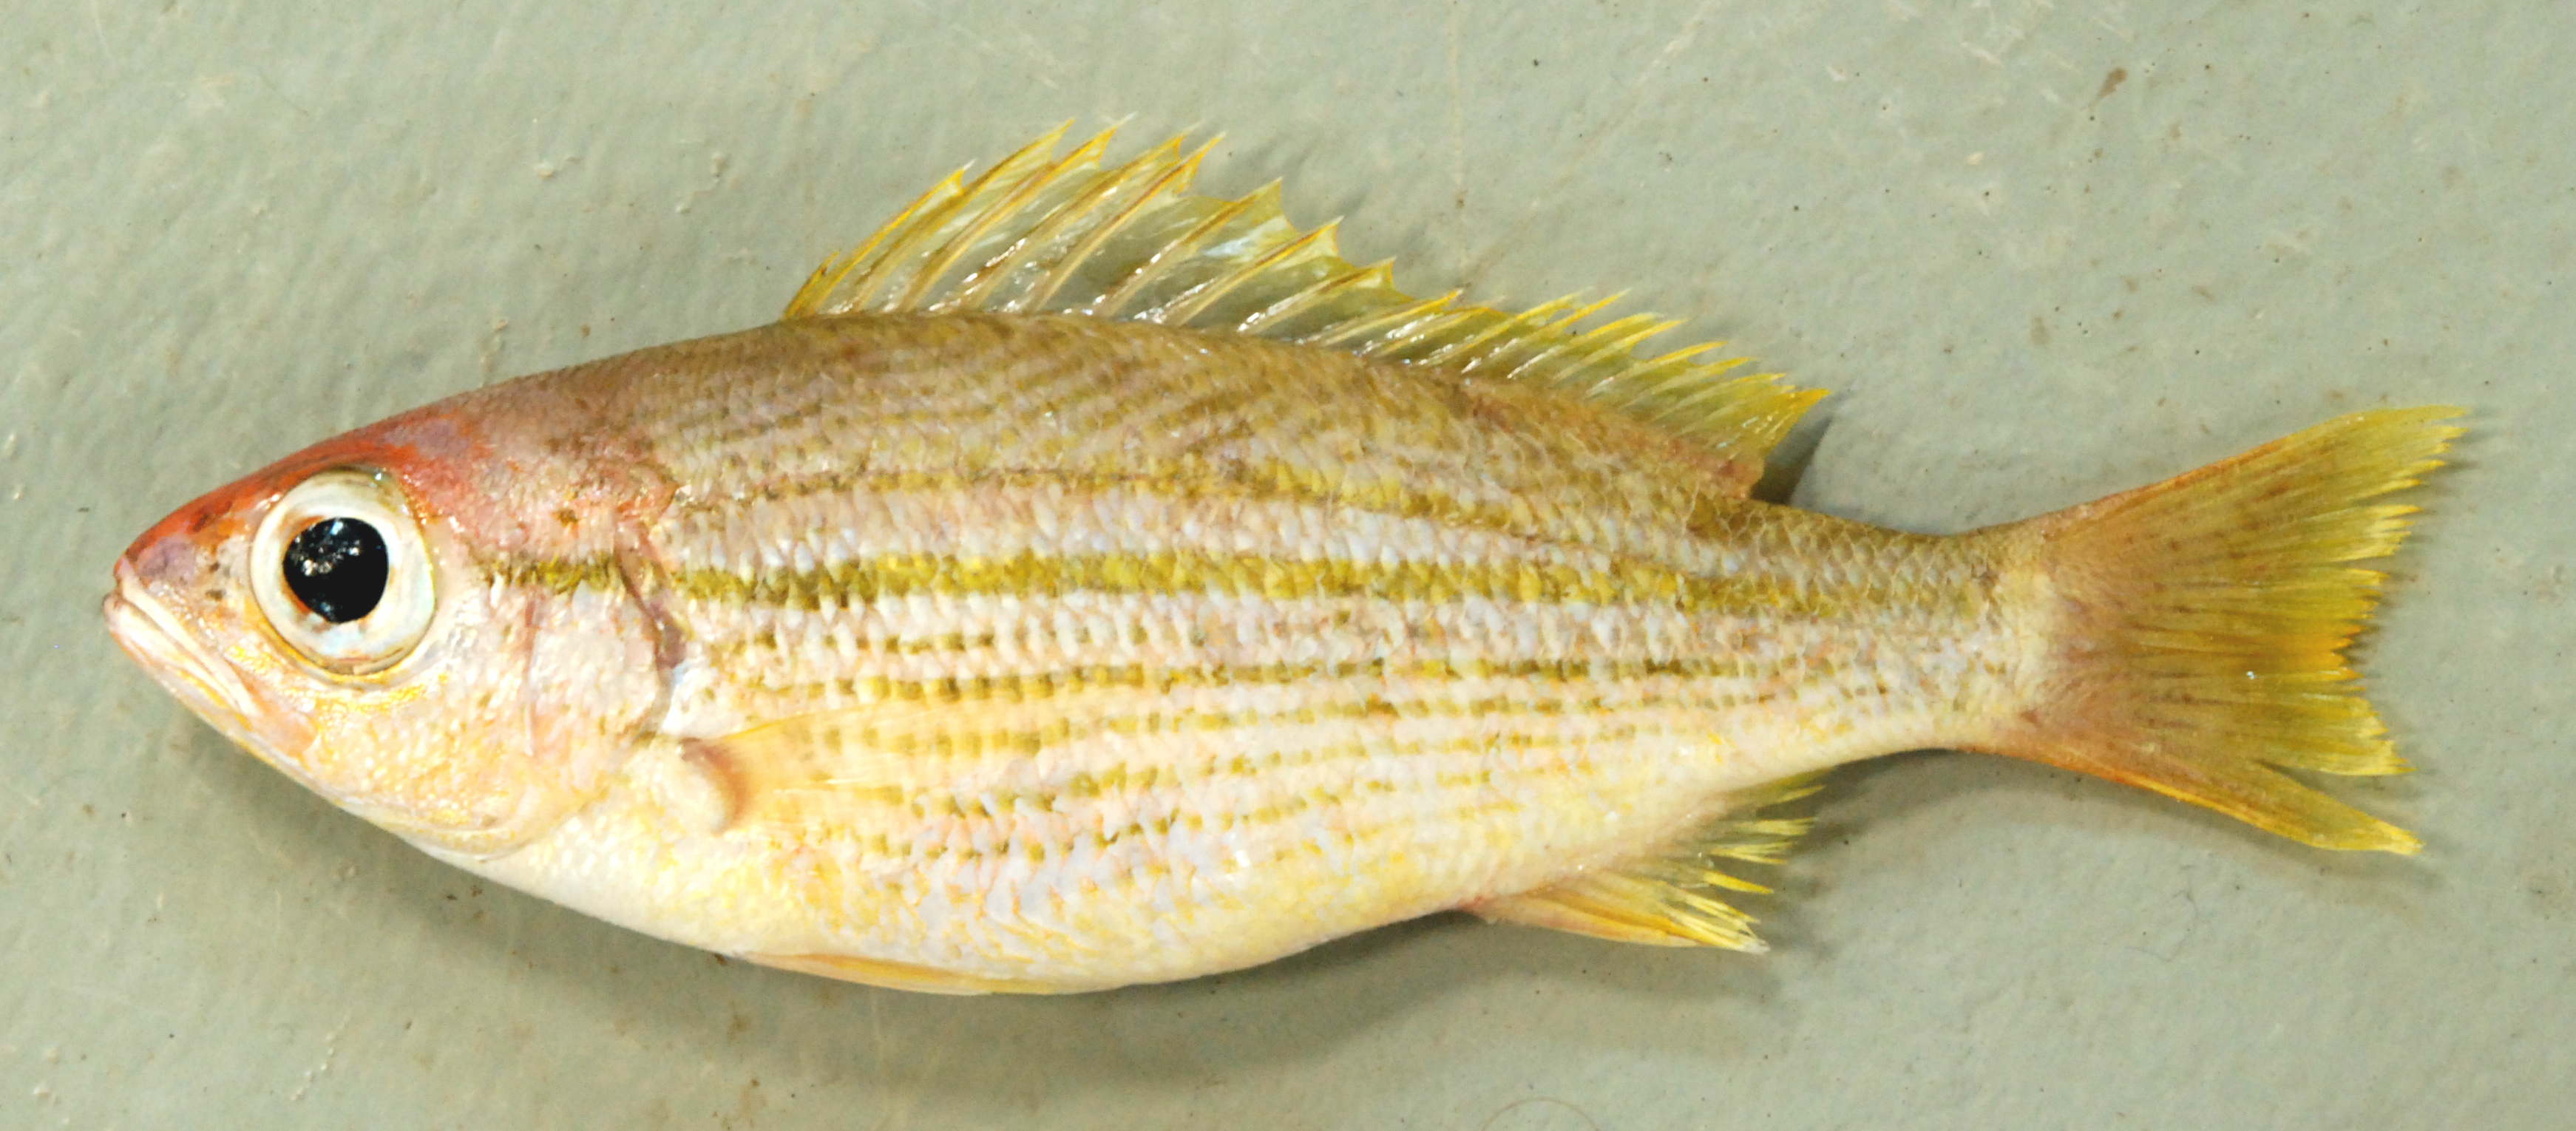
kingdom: Animalia
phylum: Chordata
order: Perciformes
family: Lutjanidae
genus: Lutjanus
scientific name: Lutjanus lutjanus
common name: Bigeye snapper
